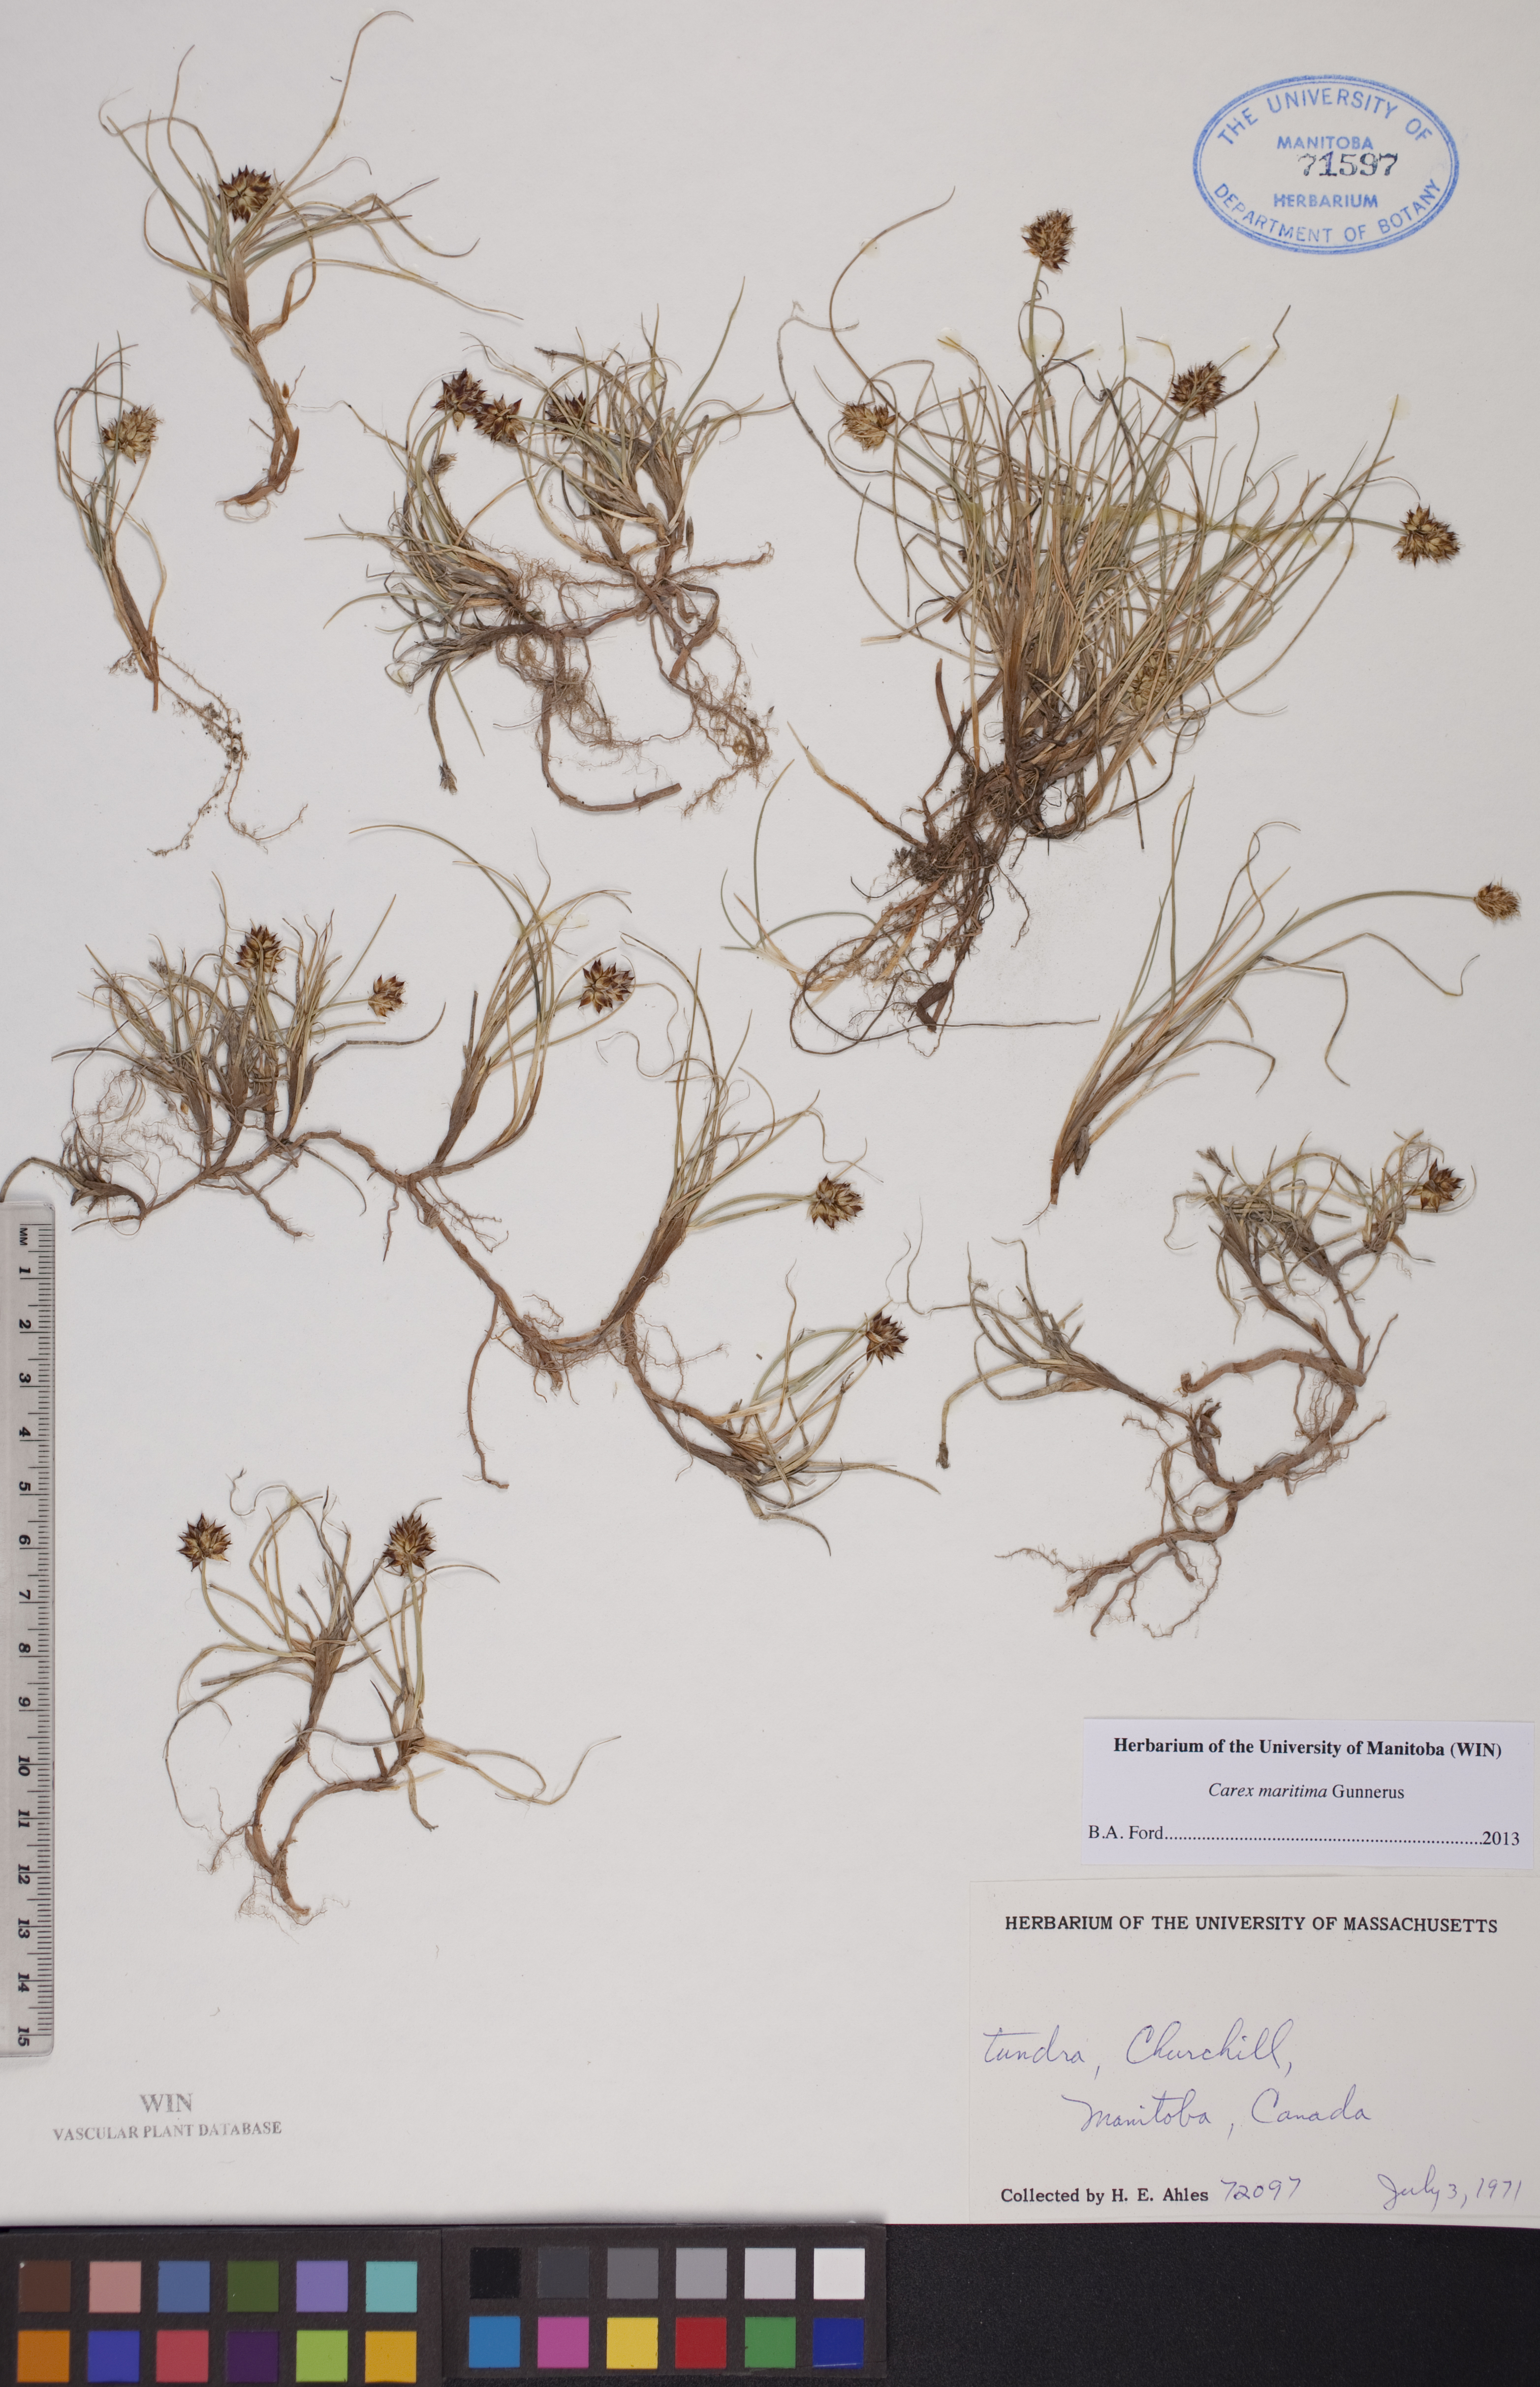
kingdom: Plantae
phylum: Tracheophyta
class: Liliopsida
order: Poales
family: Cyperaceae
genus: Carex
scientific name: Carex maritima
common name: Curved sedge
